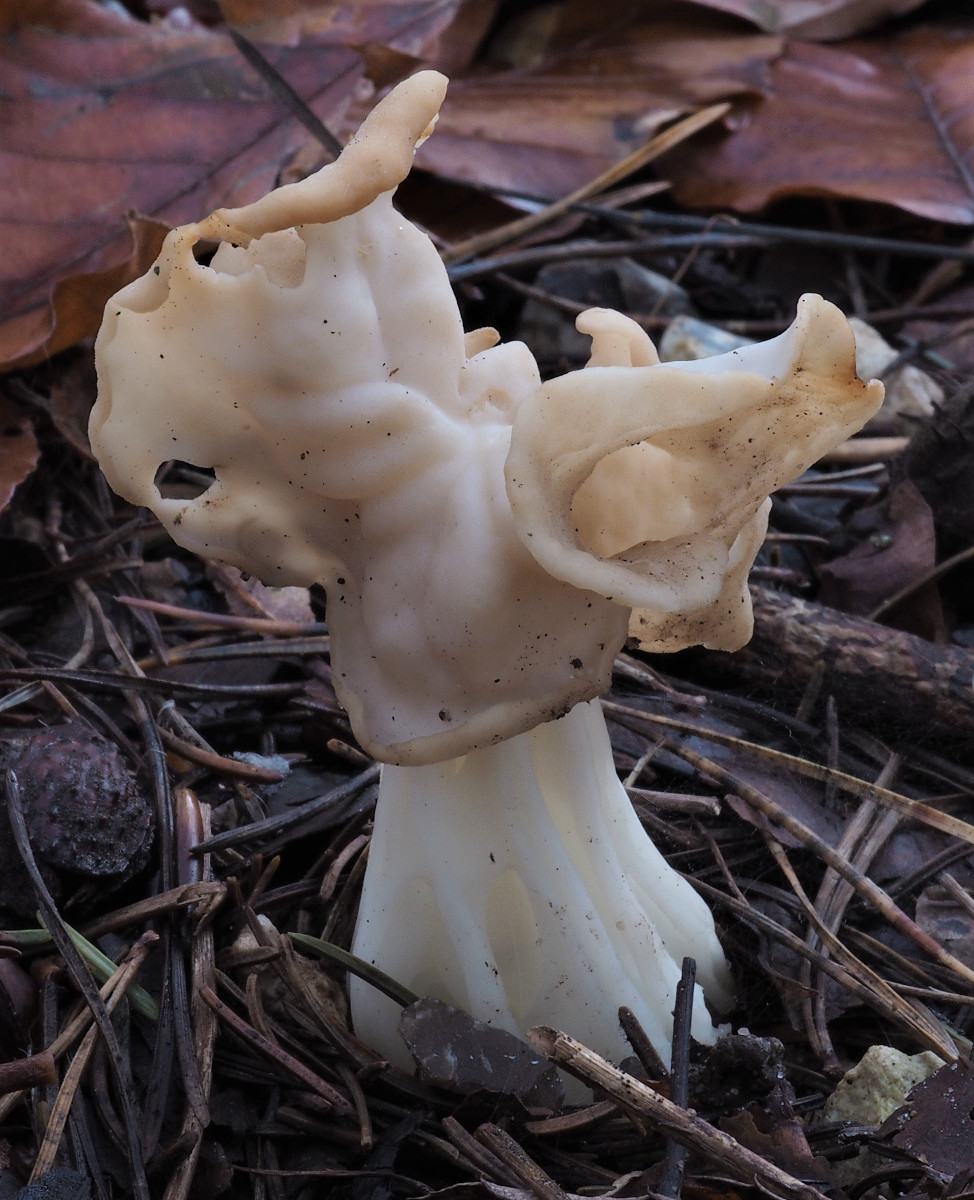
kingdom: Fungi
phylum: Ascomycota
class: Pezizomycetes
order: Pezizales
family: Helvellaceae
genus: Helvella
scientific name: Helvella crispa
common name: kruset foldhat
